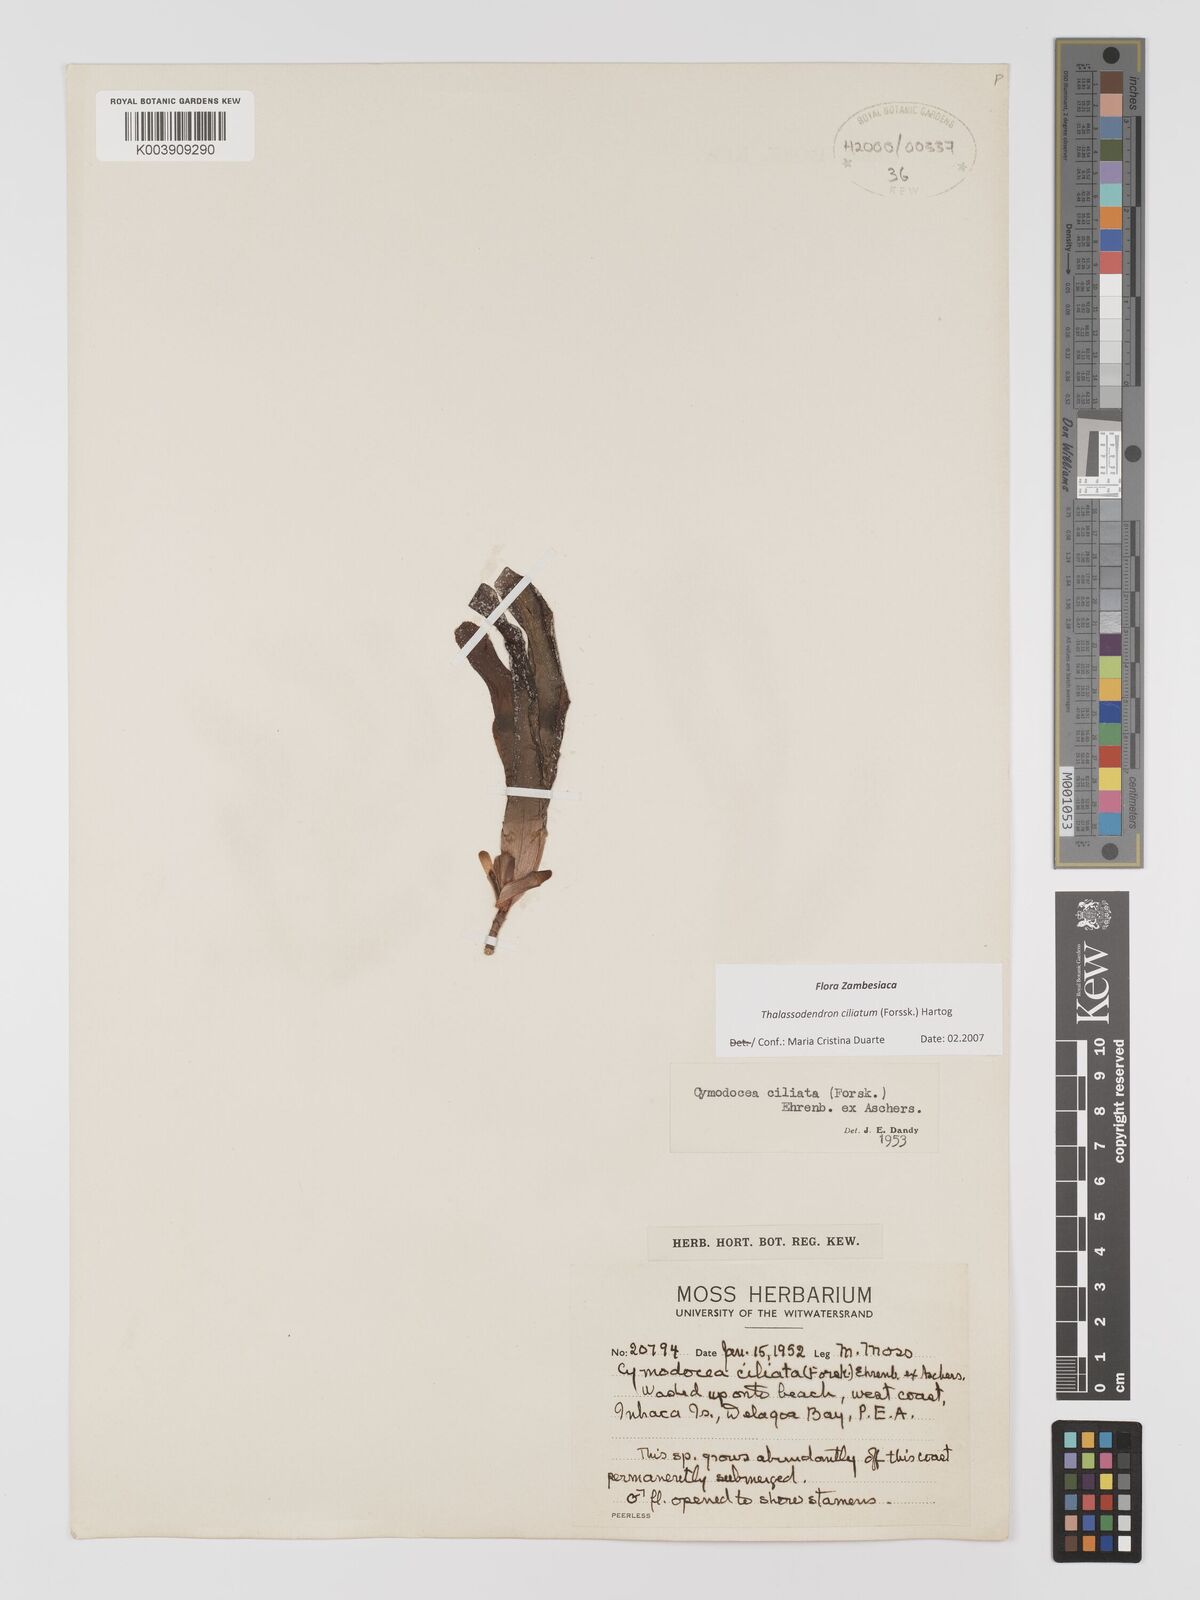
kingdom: Plantae
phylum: Tracheophyta
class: Liliopsida
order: Alismatales
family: Cymodoceaceae
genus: Thalassodendron
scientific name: Thalassodendron ciliatum
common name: Species code: tc
